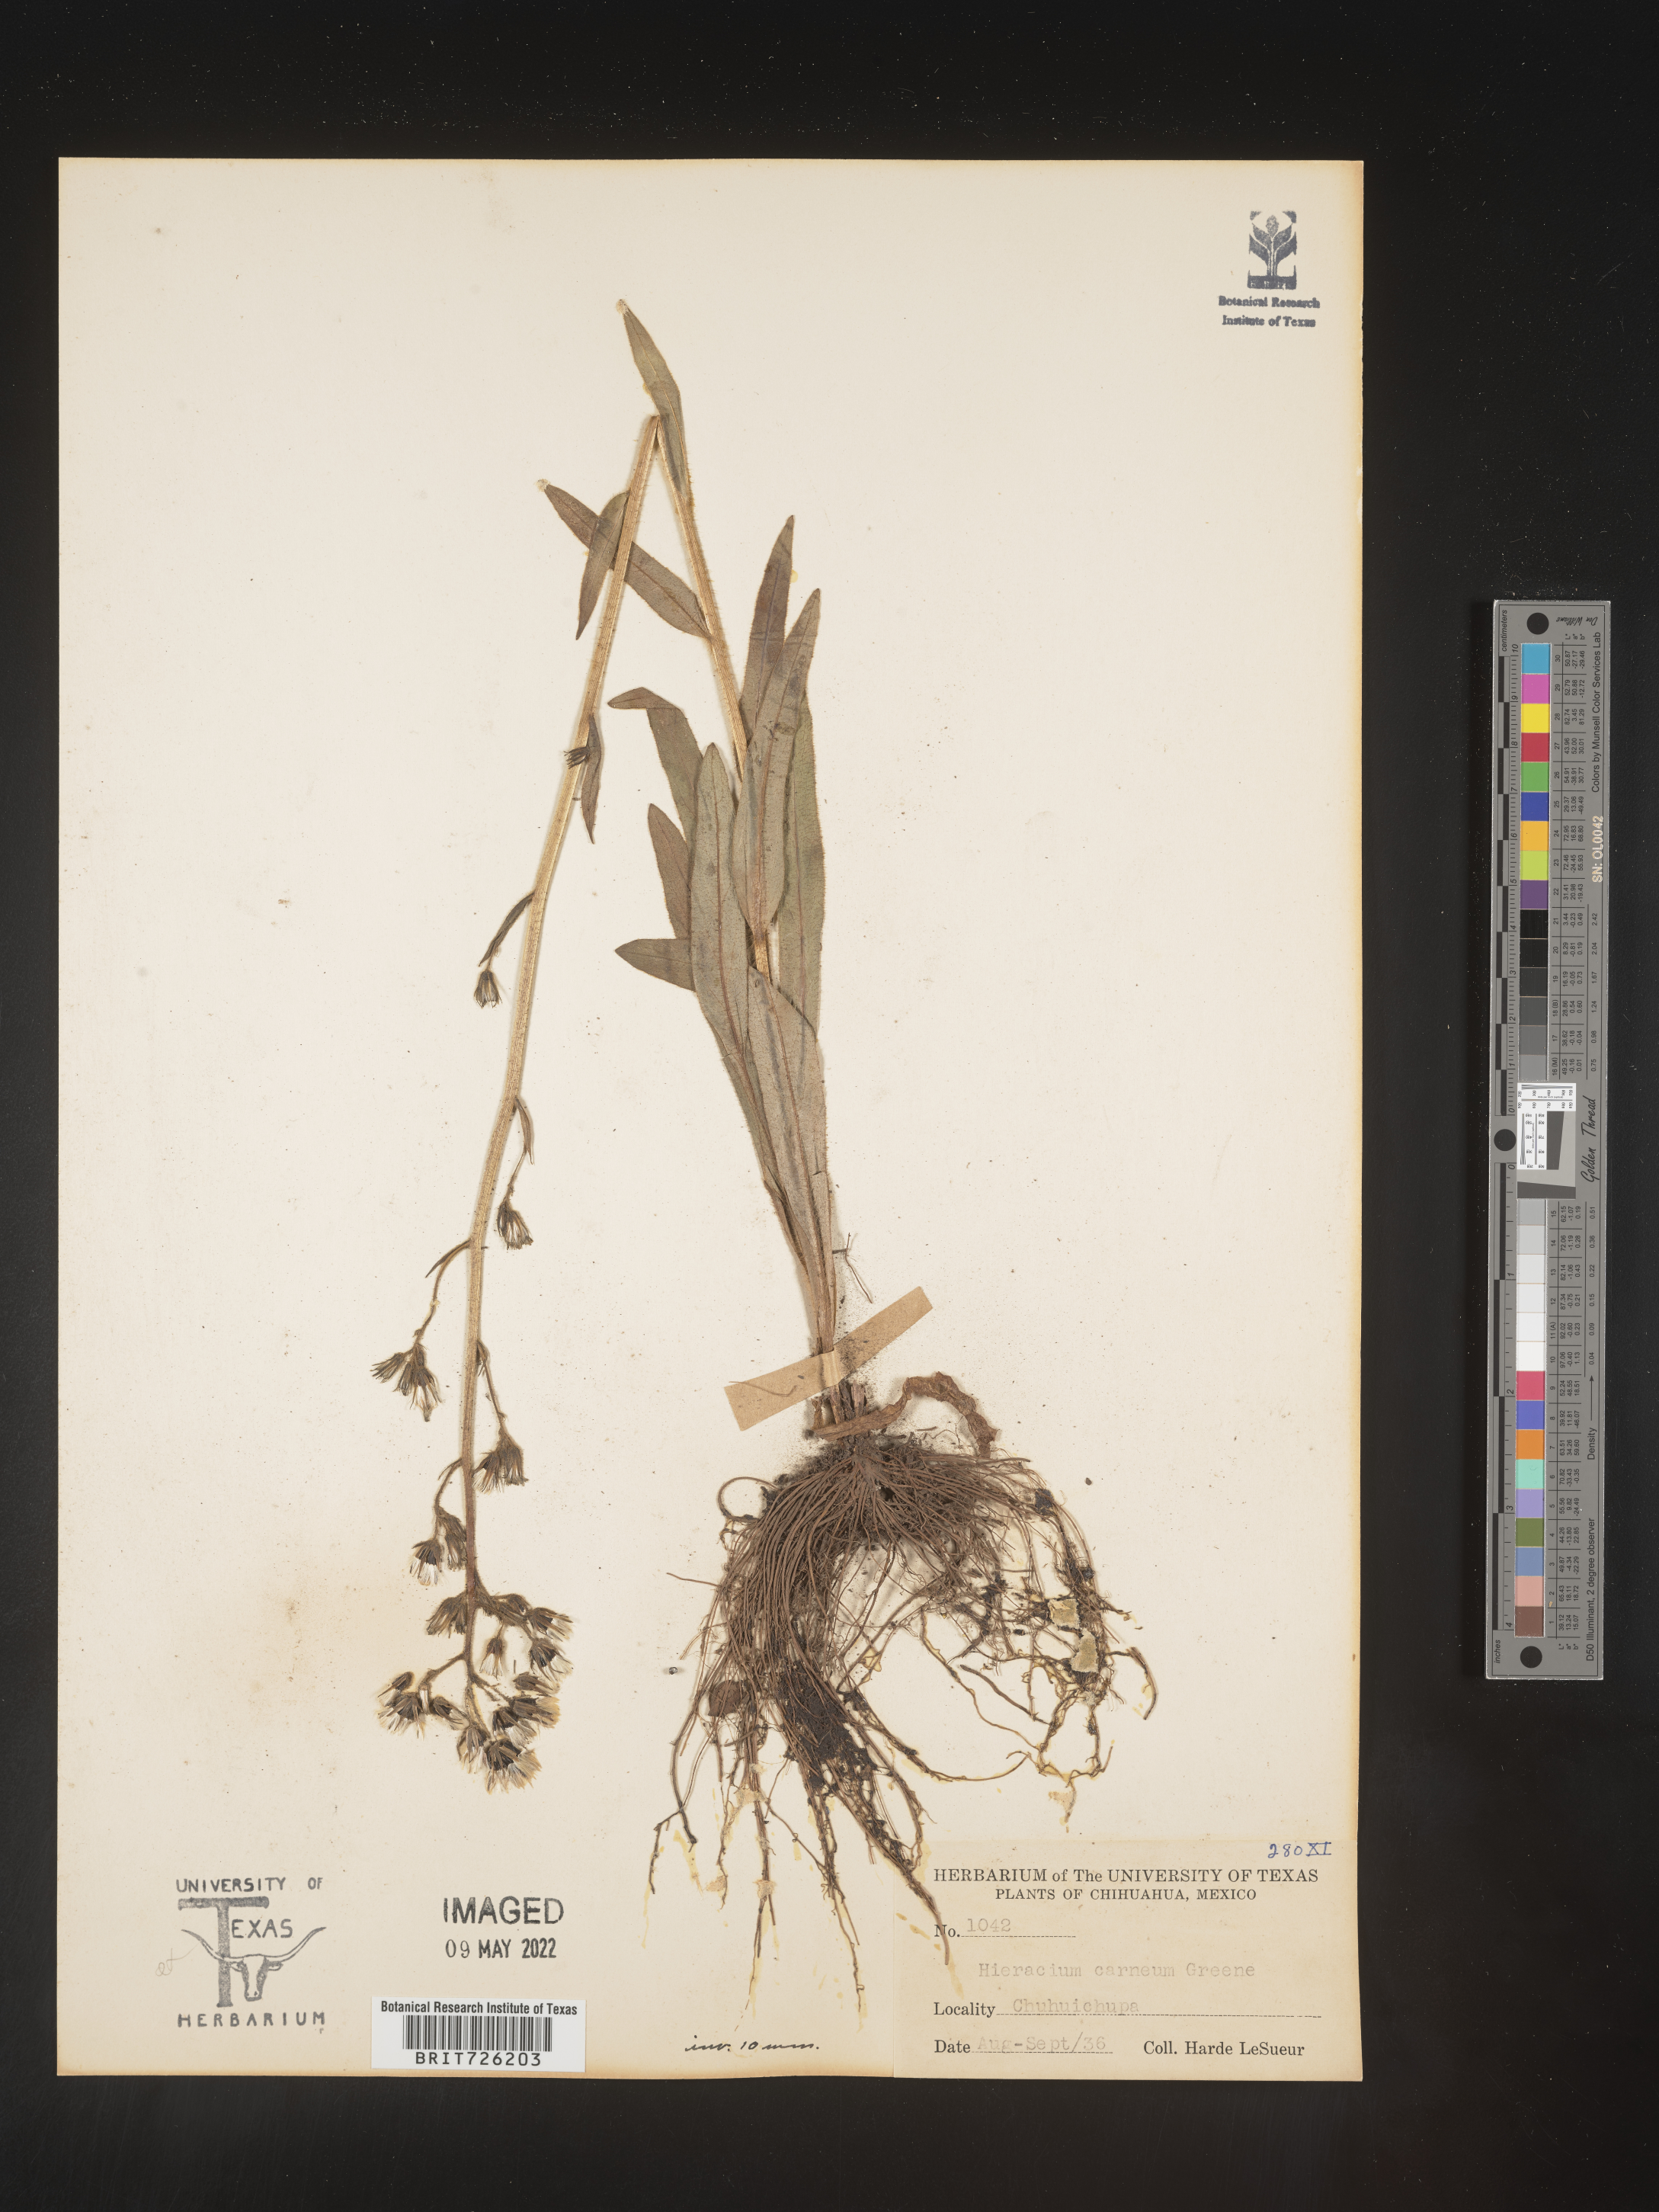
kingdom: Plantae
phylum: Tracheophyta
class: Magnoliopsida
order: Asterales
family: Asteraceae
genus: Hieracium
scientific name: Hieracium
